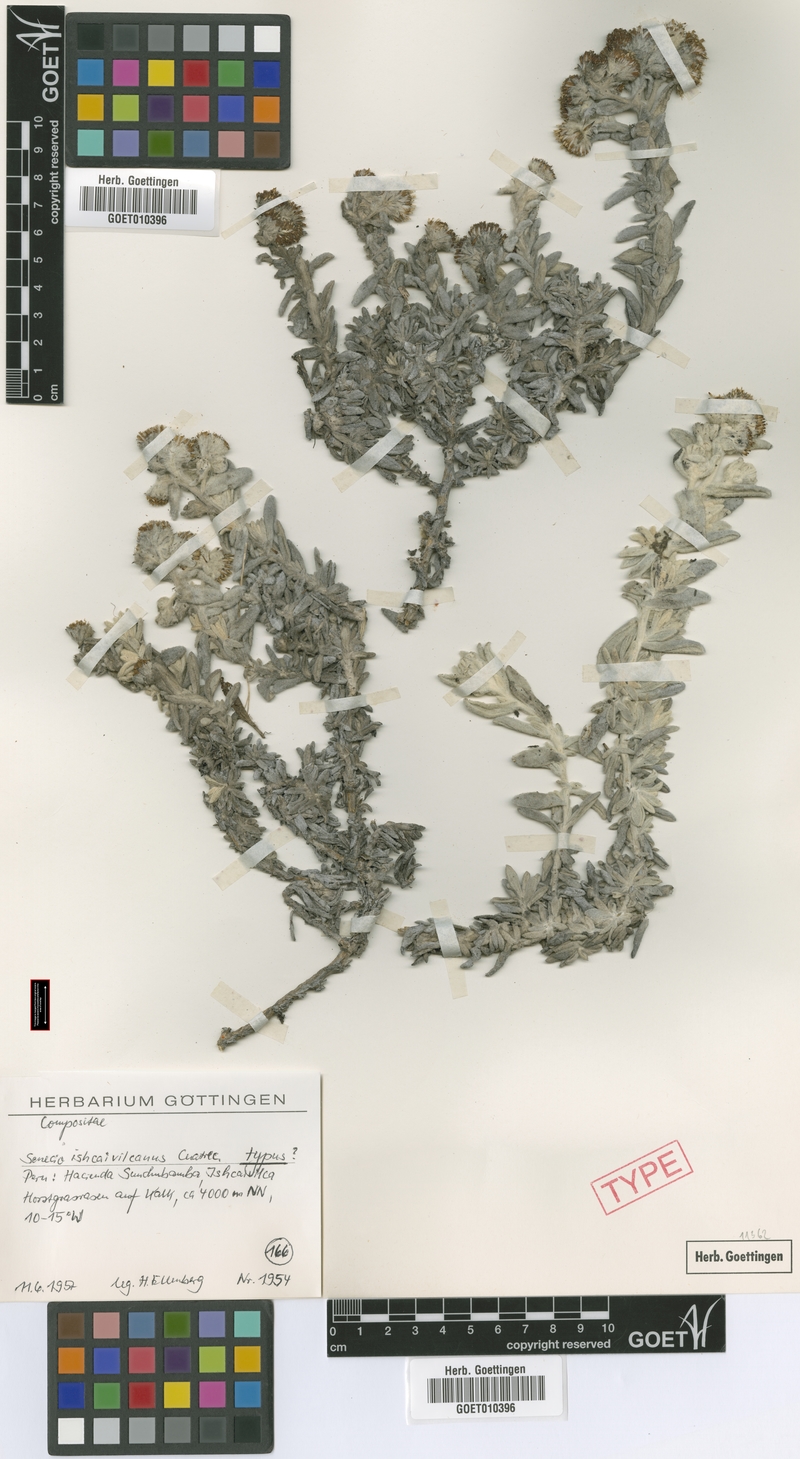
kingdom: Plantae
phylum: Tracheophyta
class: Magnoliopsida
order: Asterales
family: Asteraceae
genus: Senecio
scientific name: Senecio ishcaivilcanus
